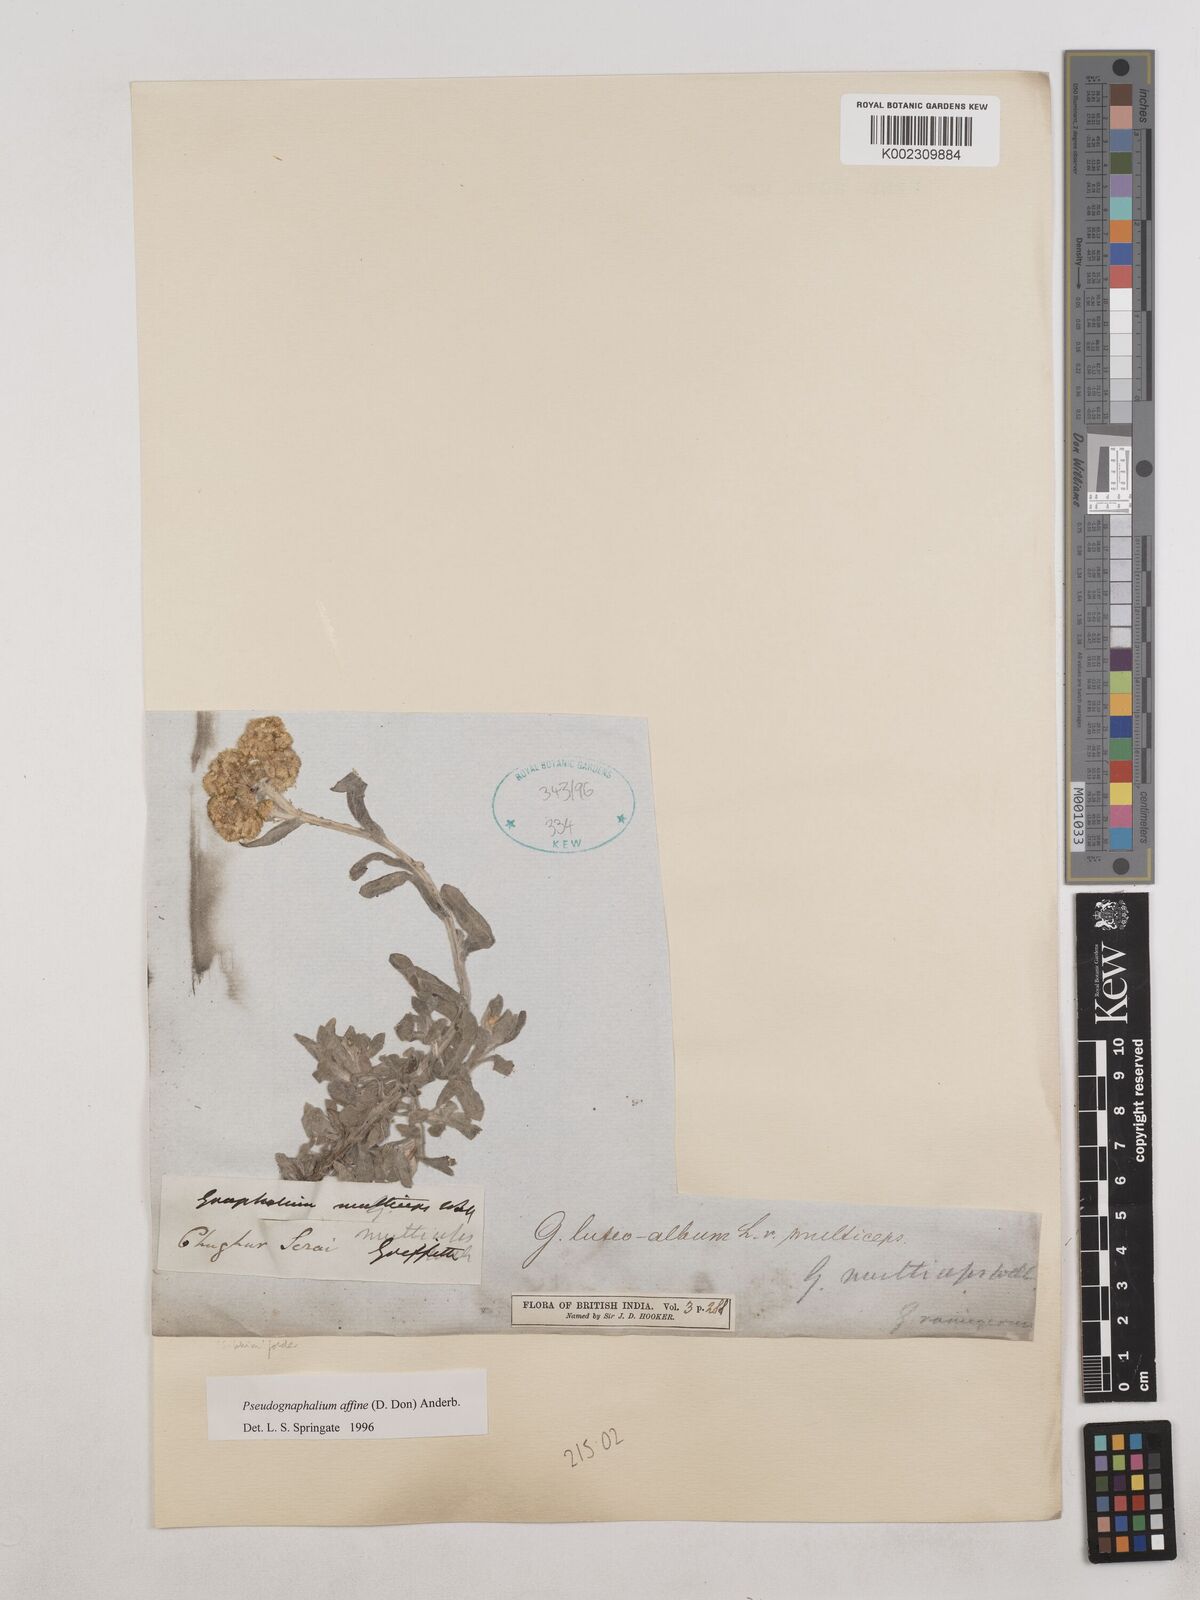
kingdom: Plantae
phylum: Tracheophyta
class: Magnoliopsida
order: Asterales
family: Asteraceae
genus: Helichrysum
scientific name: Helichrysum luteoalbum
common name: Daisy
